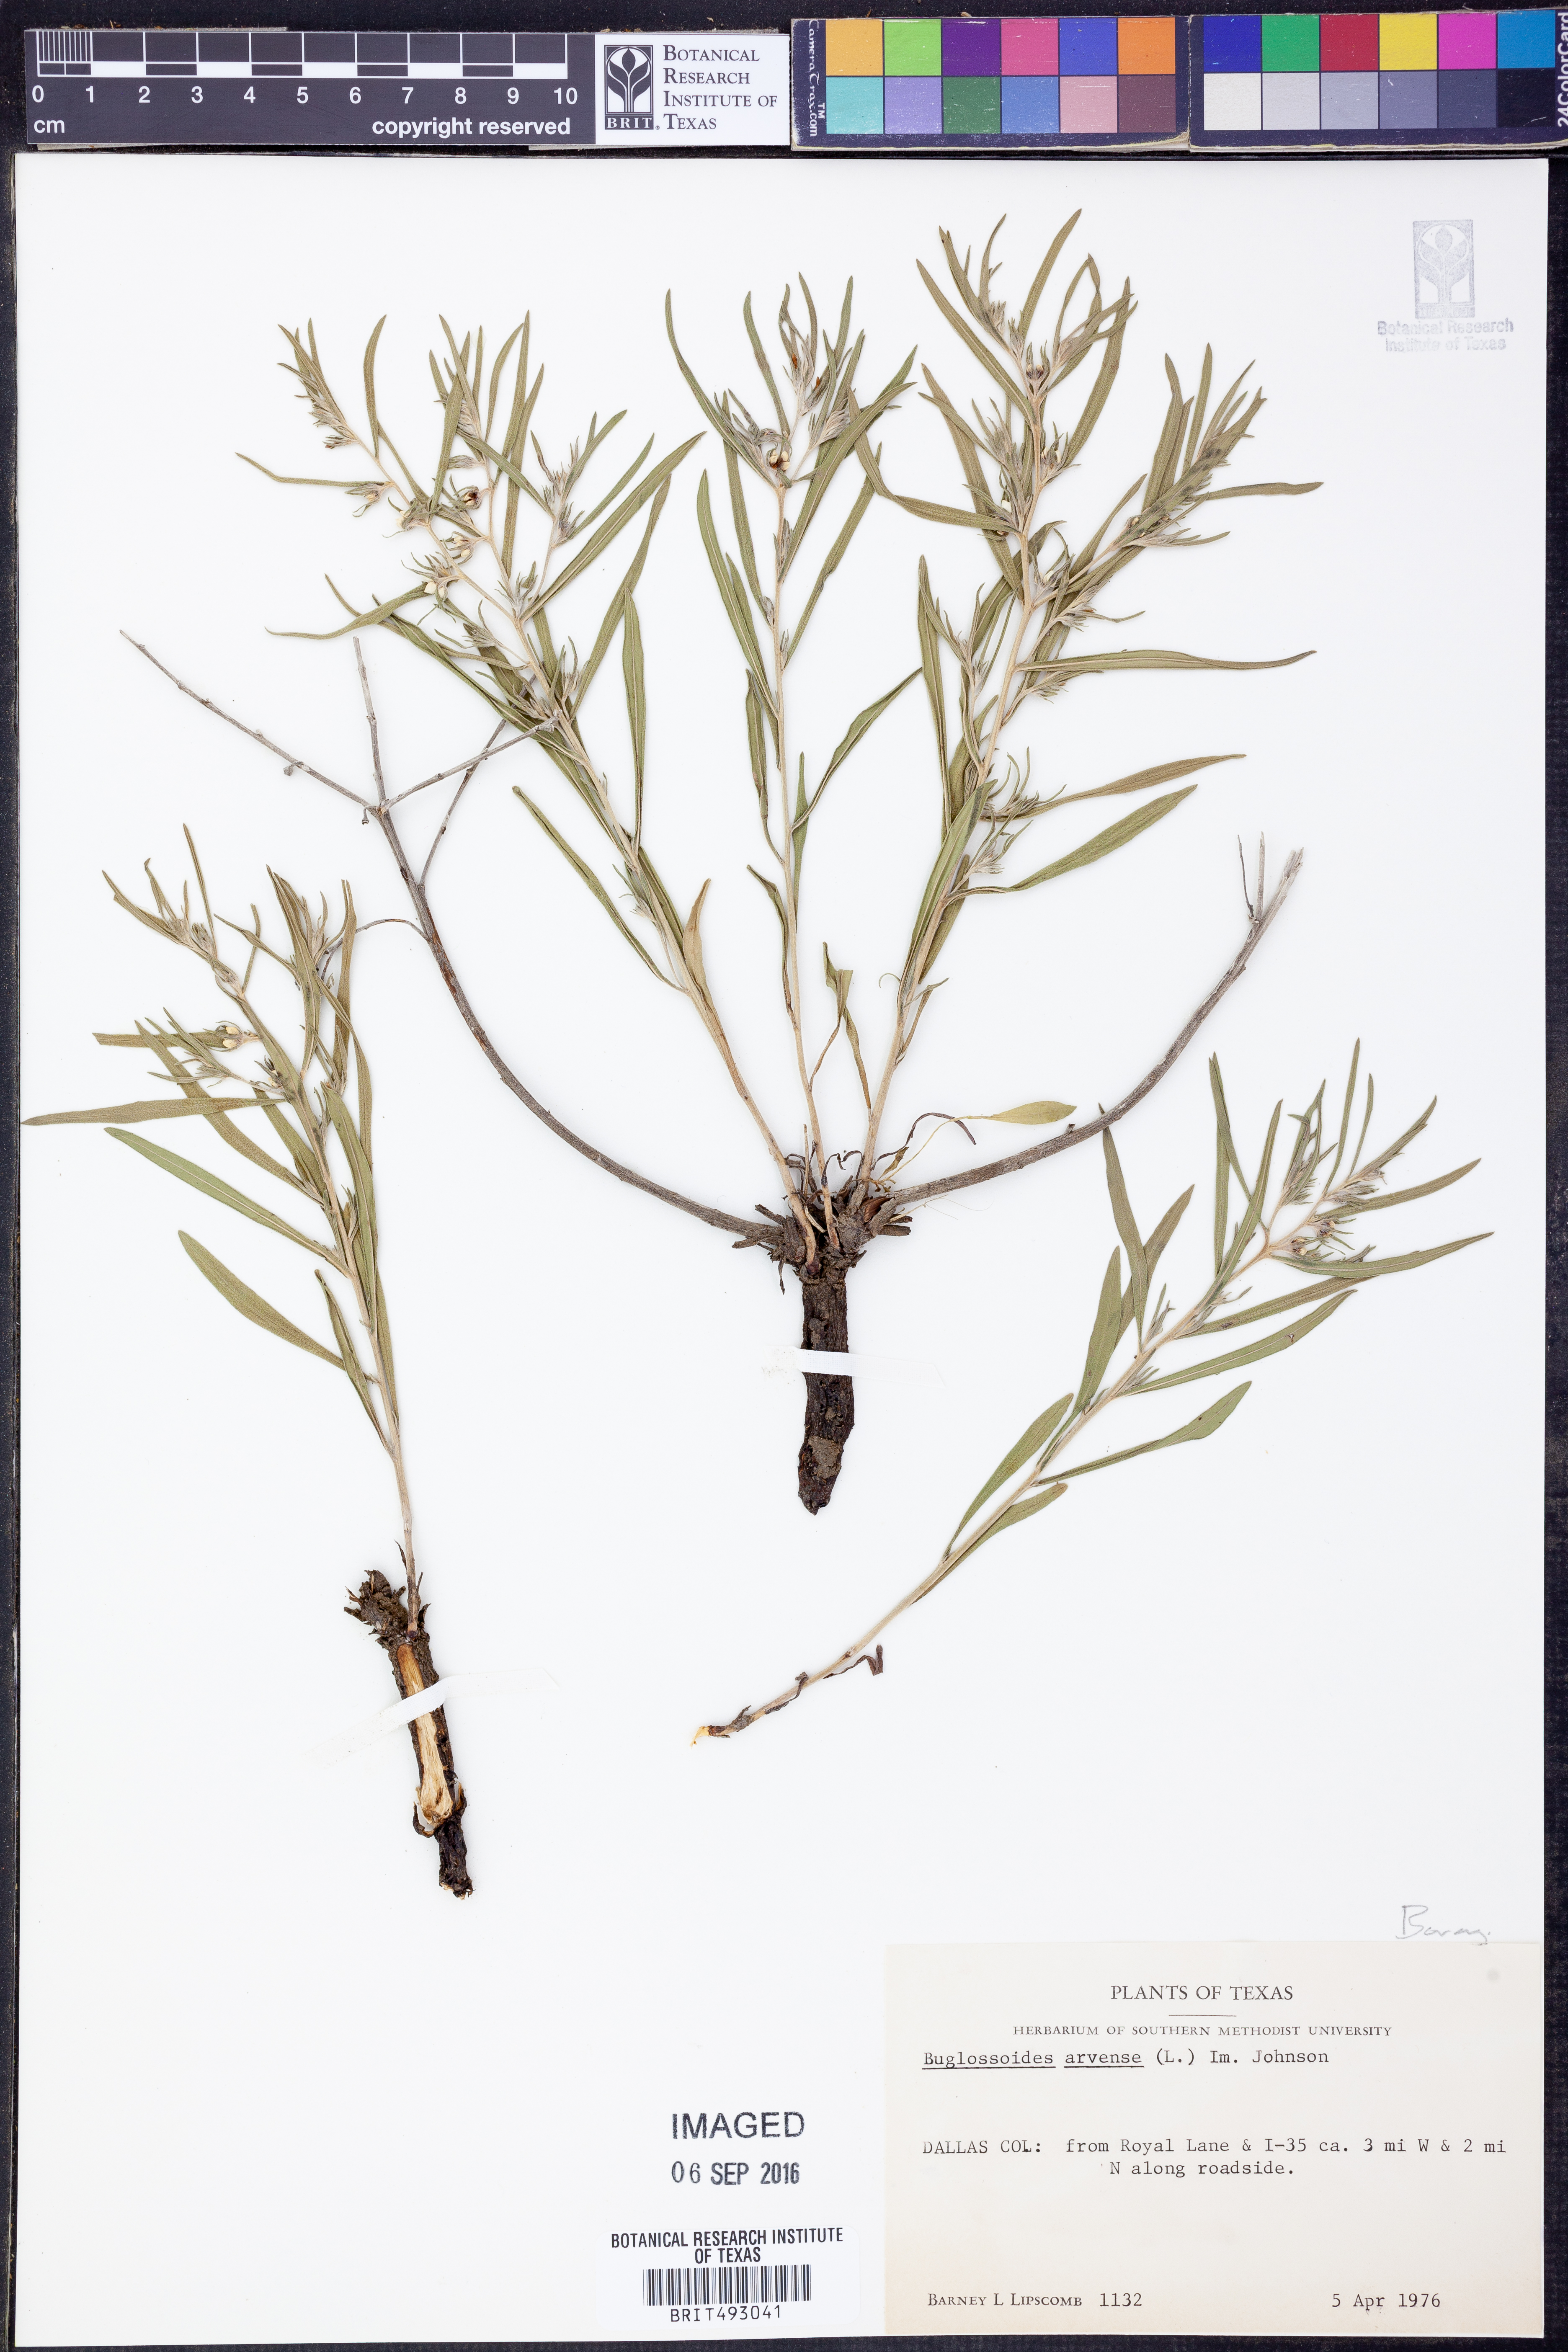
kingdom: Plantae
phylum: Tracheophyta
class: Magnoliopsida
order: Boraginales
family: Boraginaceae
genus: Buglossoides
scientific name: Buglossoides arvensis
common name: Corn gromwell
